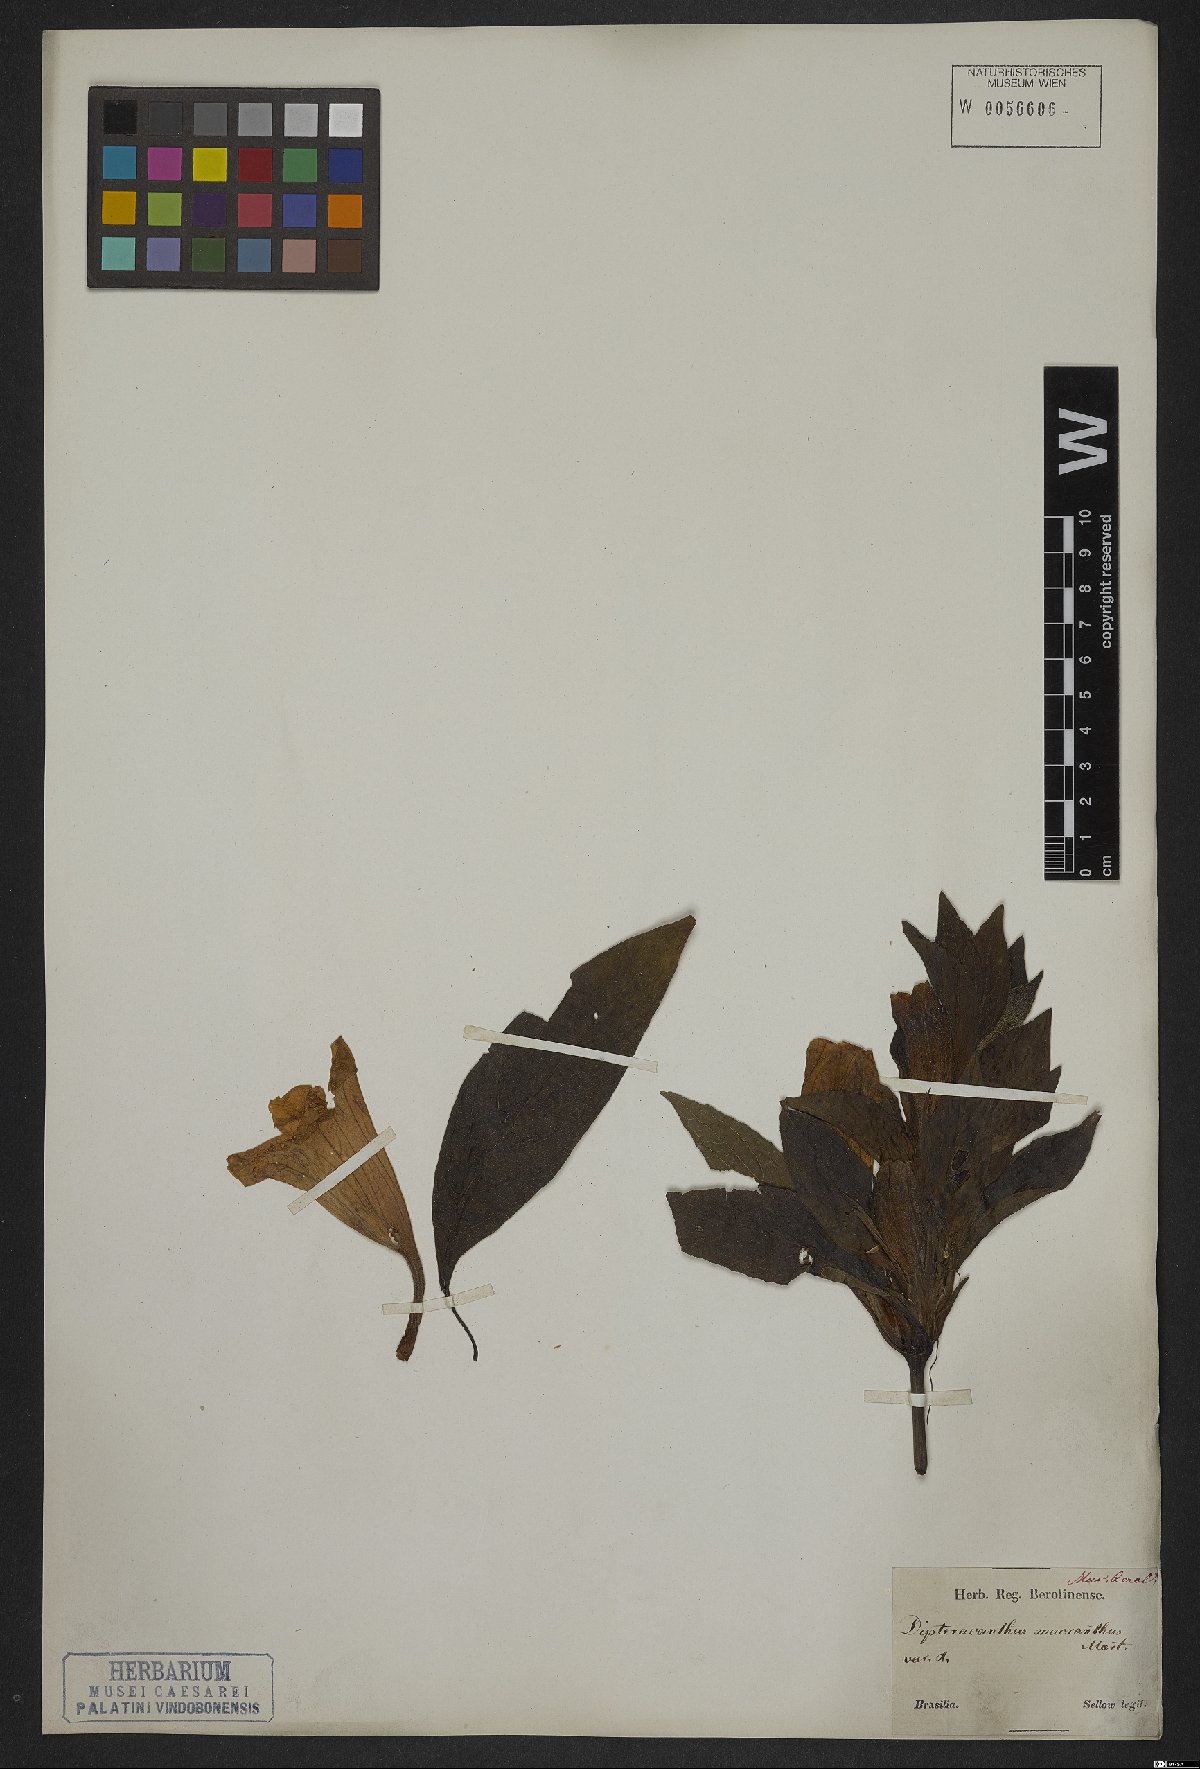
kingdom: Plantae
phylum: Tracheophyta
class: Magnoliopsida
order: Lamiales
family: Acanthaceae
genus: Ruellia
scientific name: Ruellia macrantha
